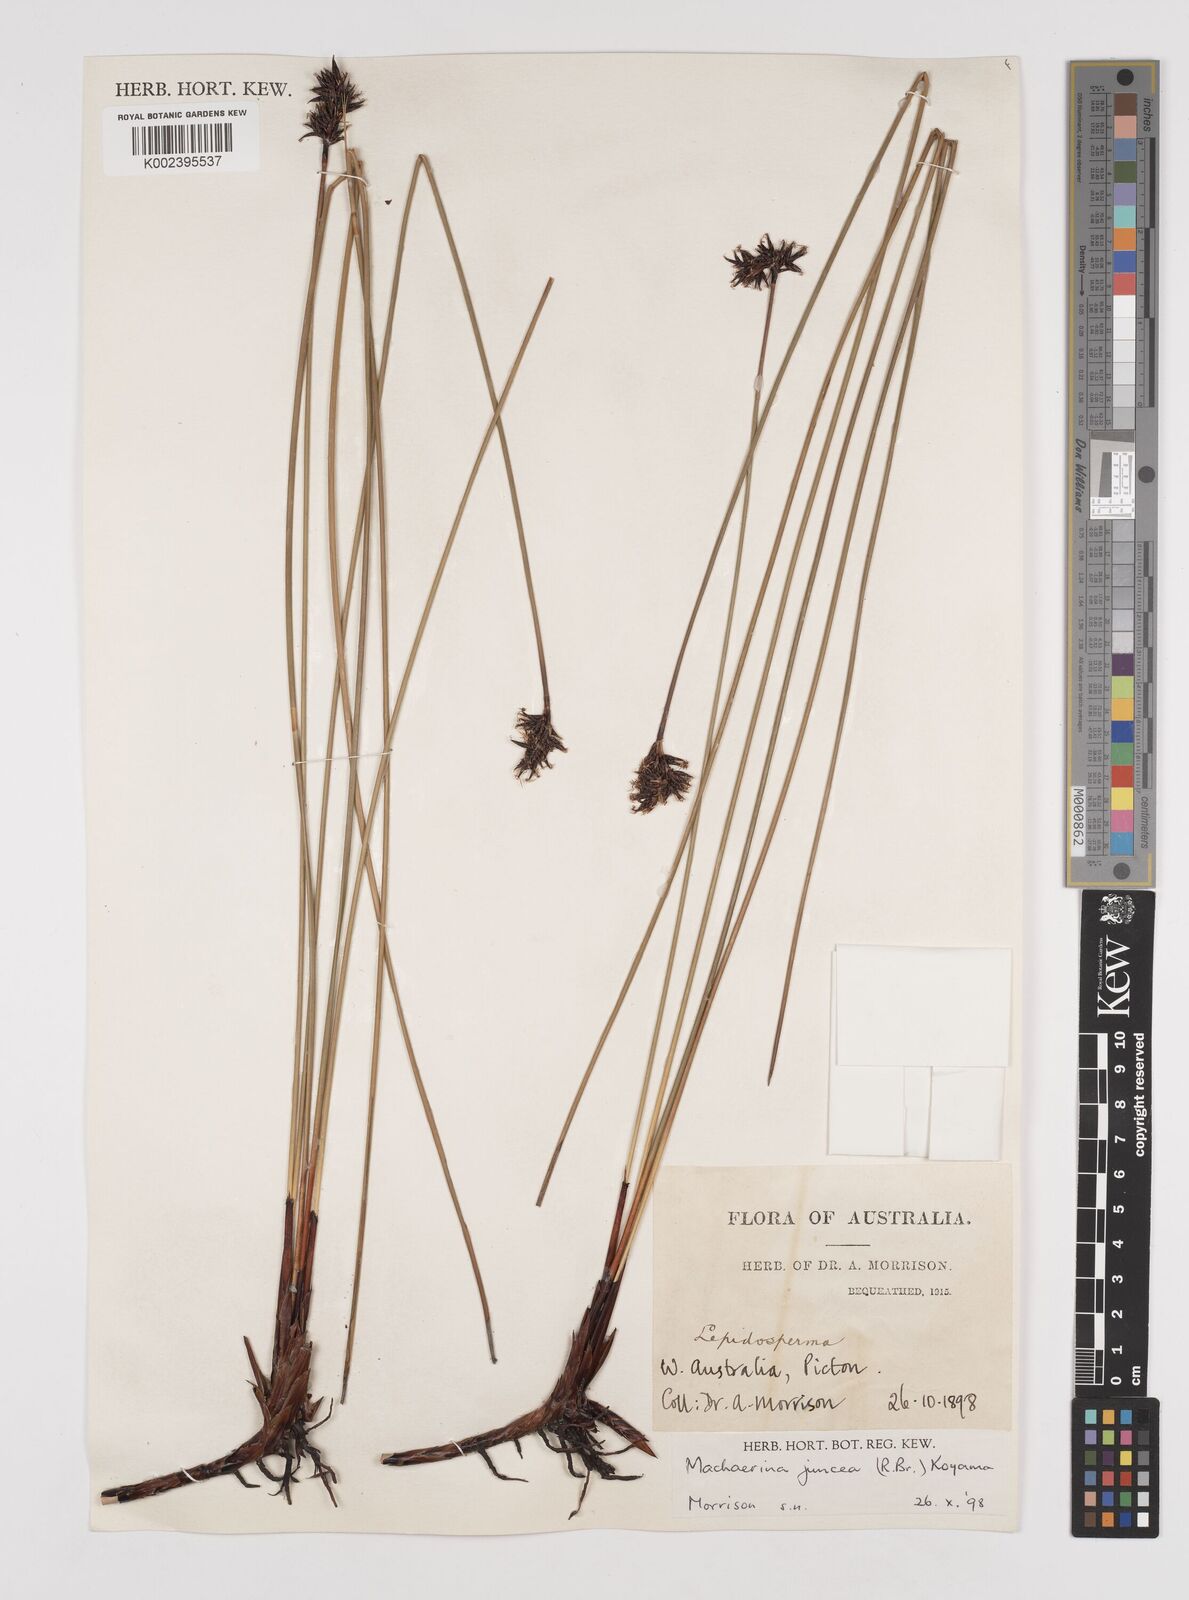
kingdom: Plantae
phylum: Tracheophyta
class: Liliopsida
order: Poales
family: Cyperaceae
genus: Machaerina
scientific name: Machaerina juncea
